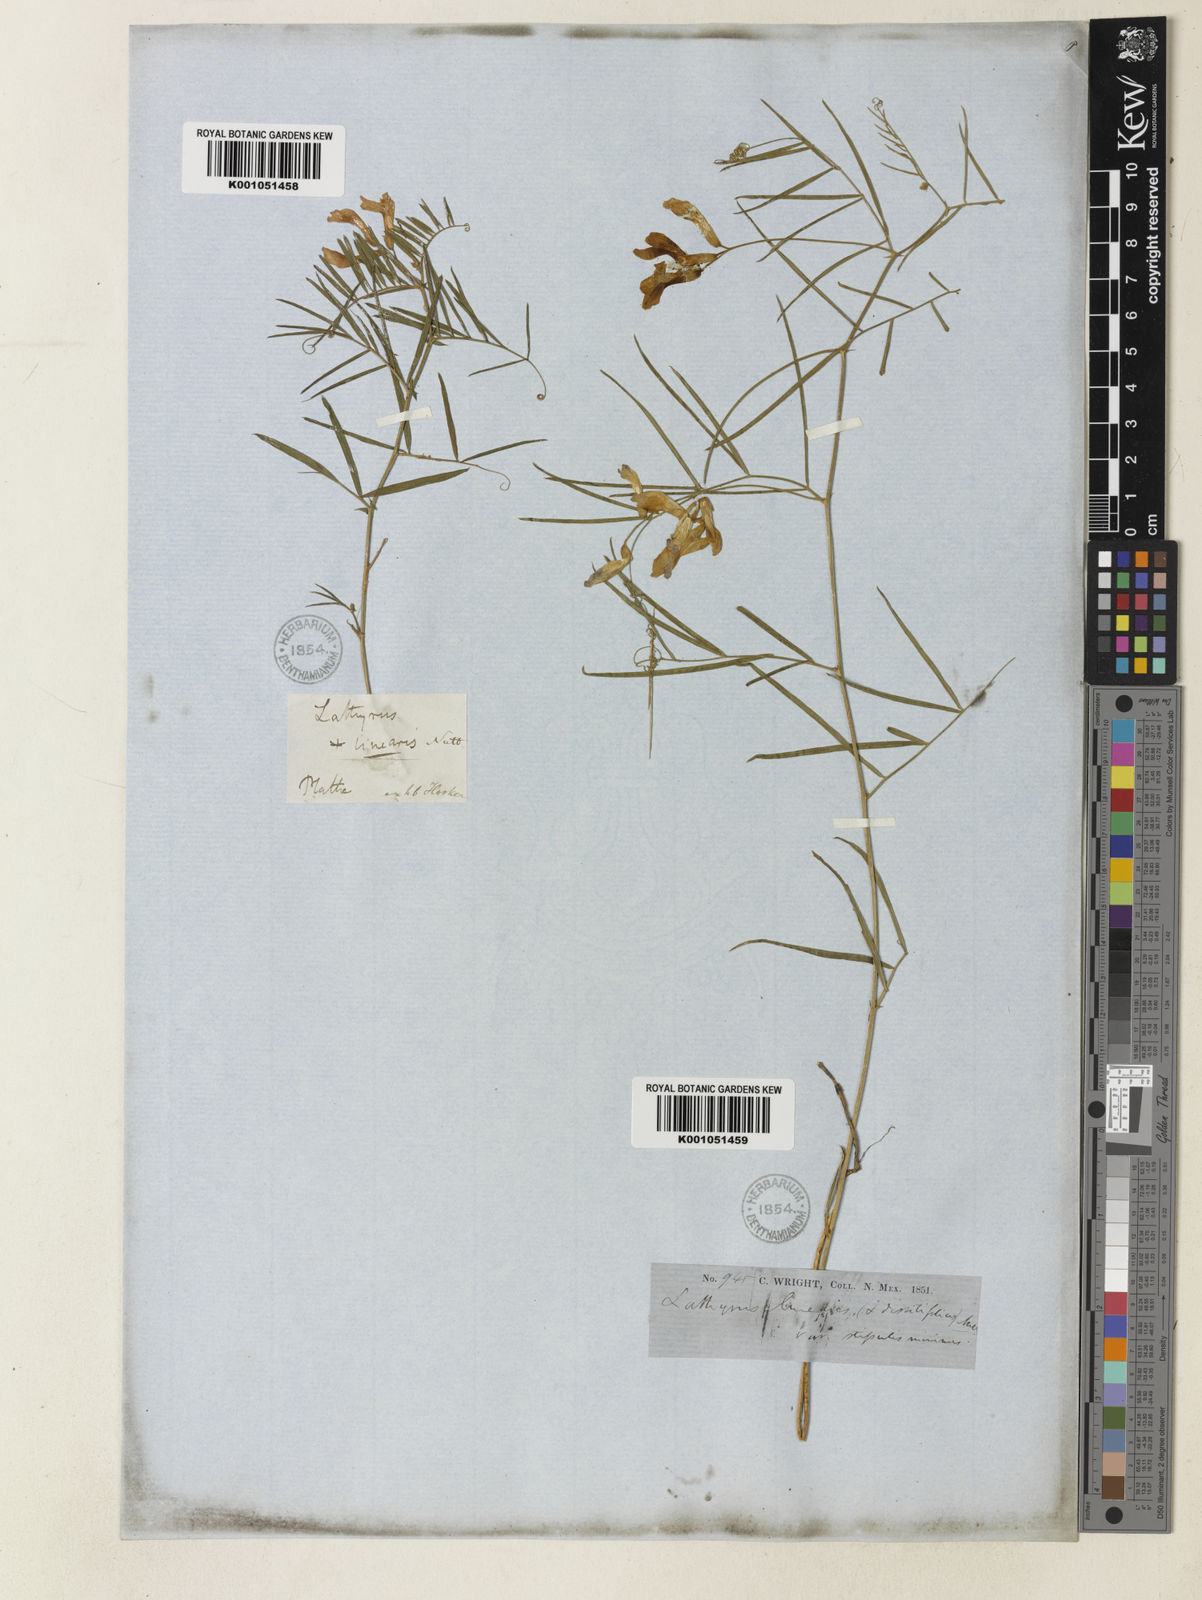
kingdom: Plantae
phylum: Tracheophyta
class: Magnoliopsida
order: Fabales
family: Fabaceae
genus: Vicia
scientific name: Vicia americana
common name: American vetch
